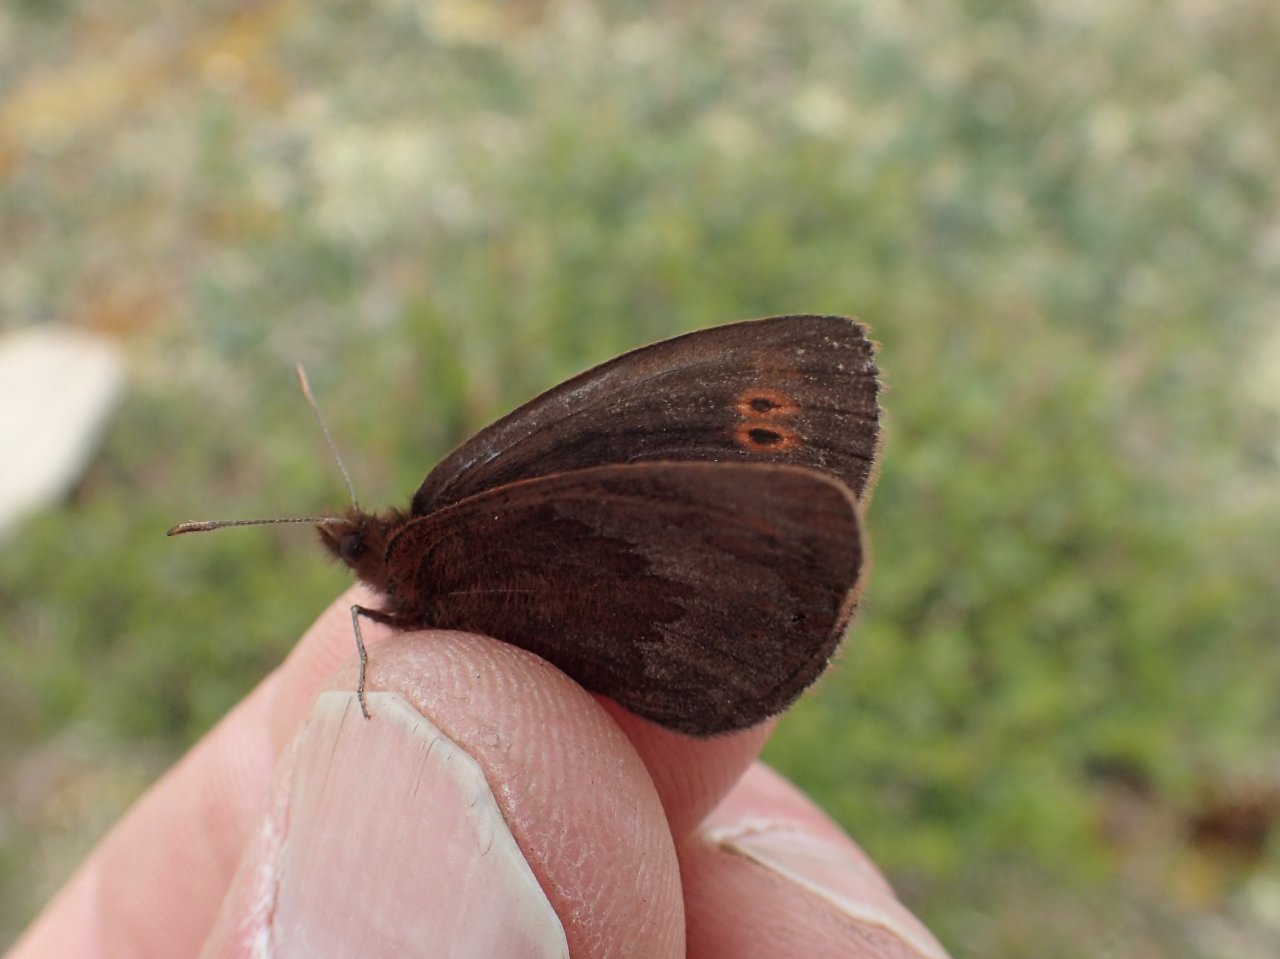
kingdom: Animalia
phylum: Arthropoda
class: Insecta
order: Lepidoptera
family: Nymphalidae
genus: Erebia
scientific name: Erebia lafontainei
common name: Reddish Alpine
